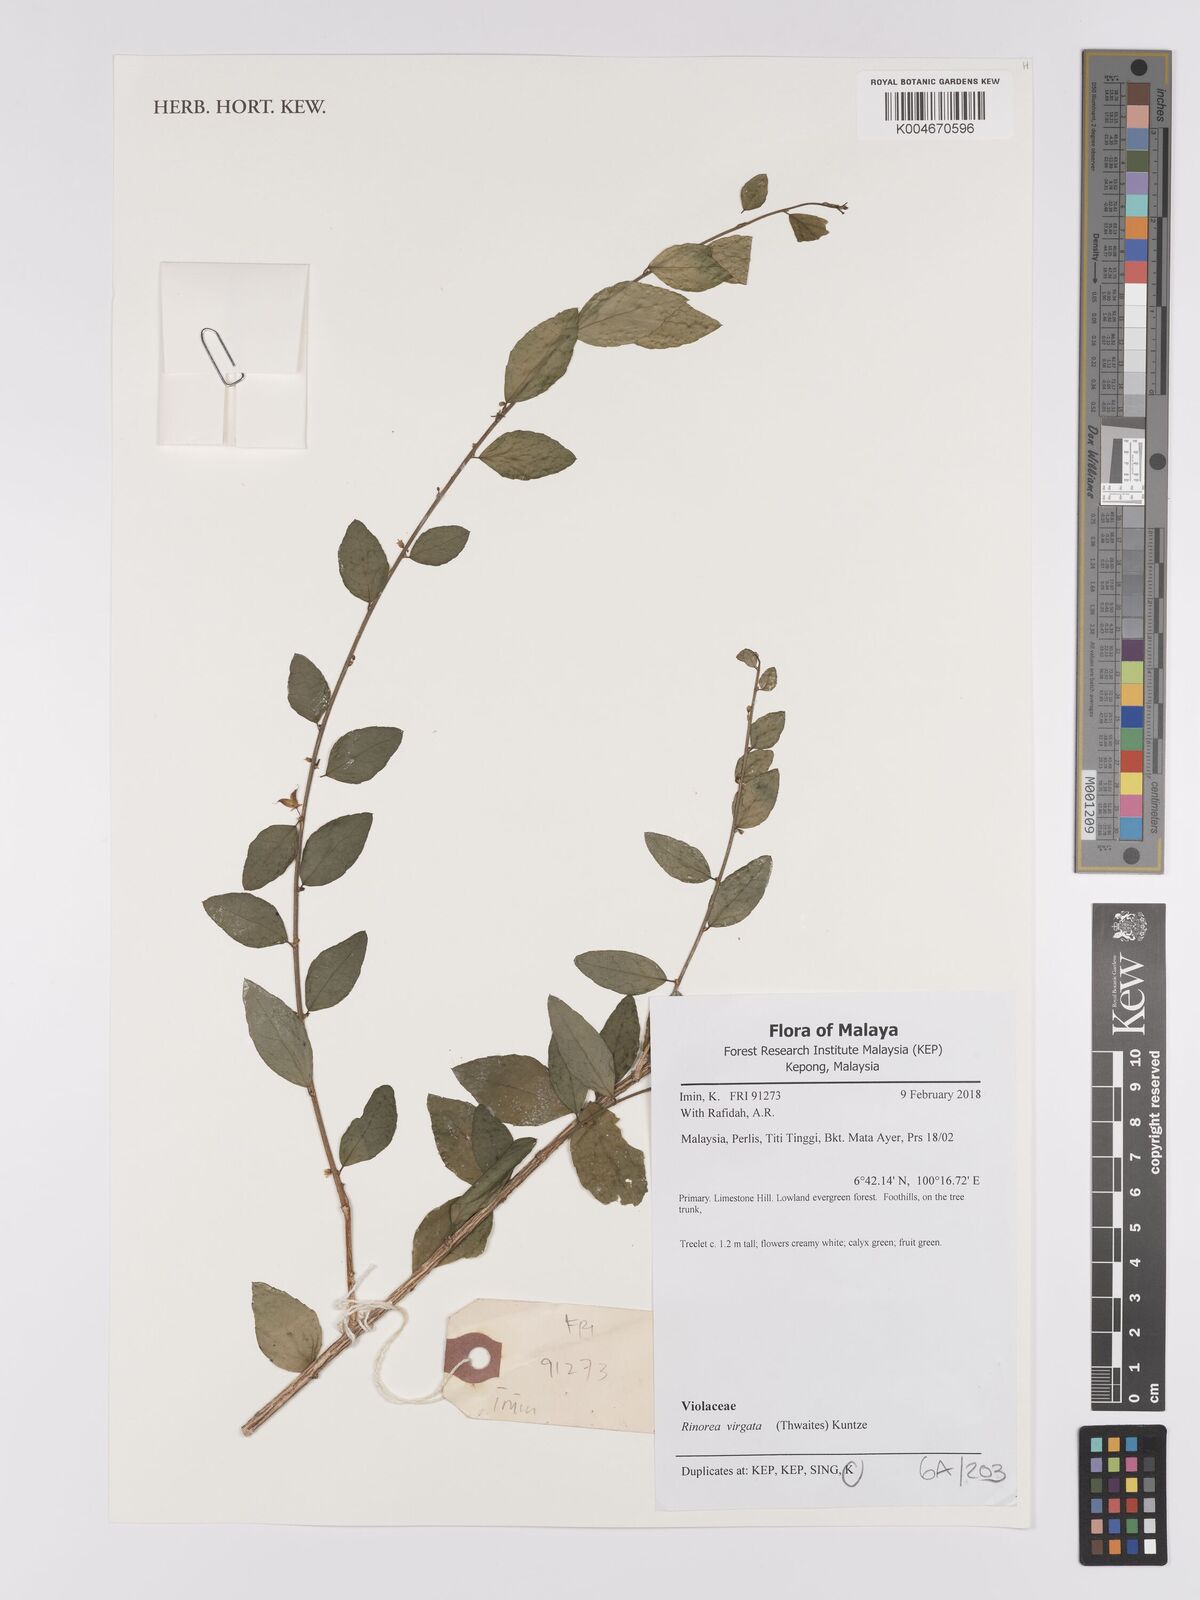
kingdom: Plantae
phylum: Tracheophyta
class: Magnoliopsida
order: Malpighiales
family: Violaceae
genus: Scyphellandra
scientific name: Scyphellandra virgata
